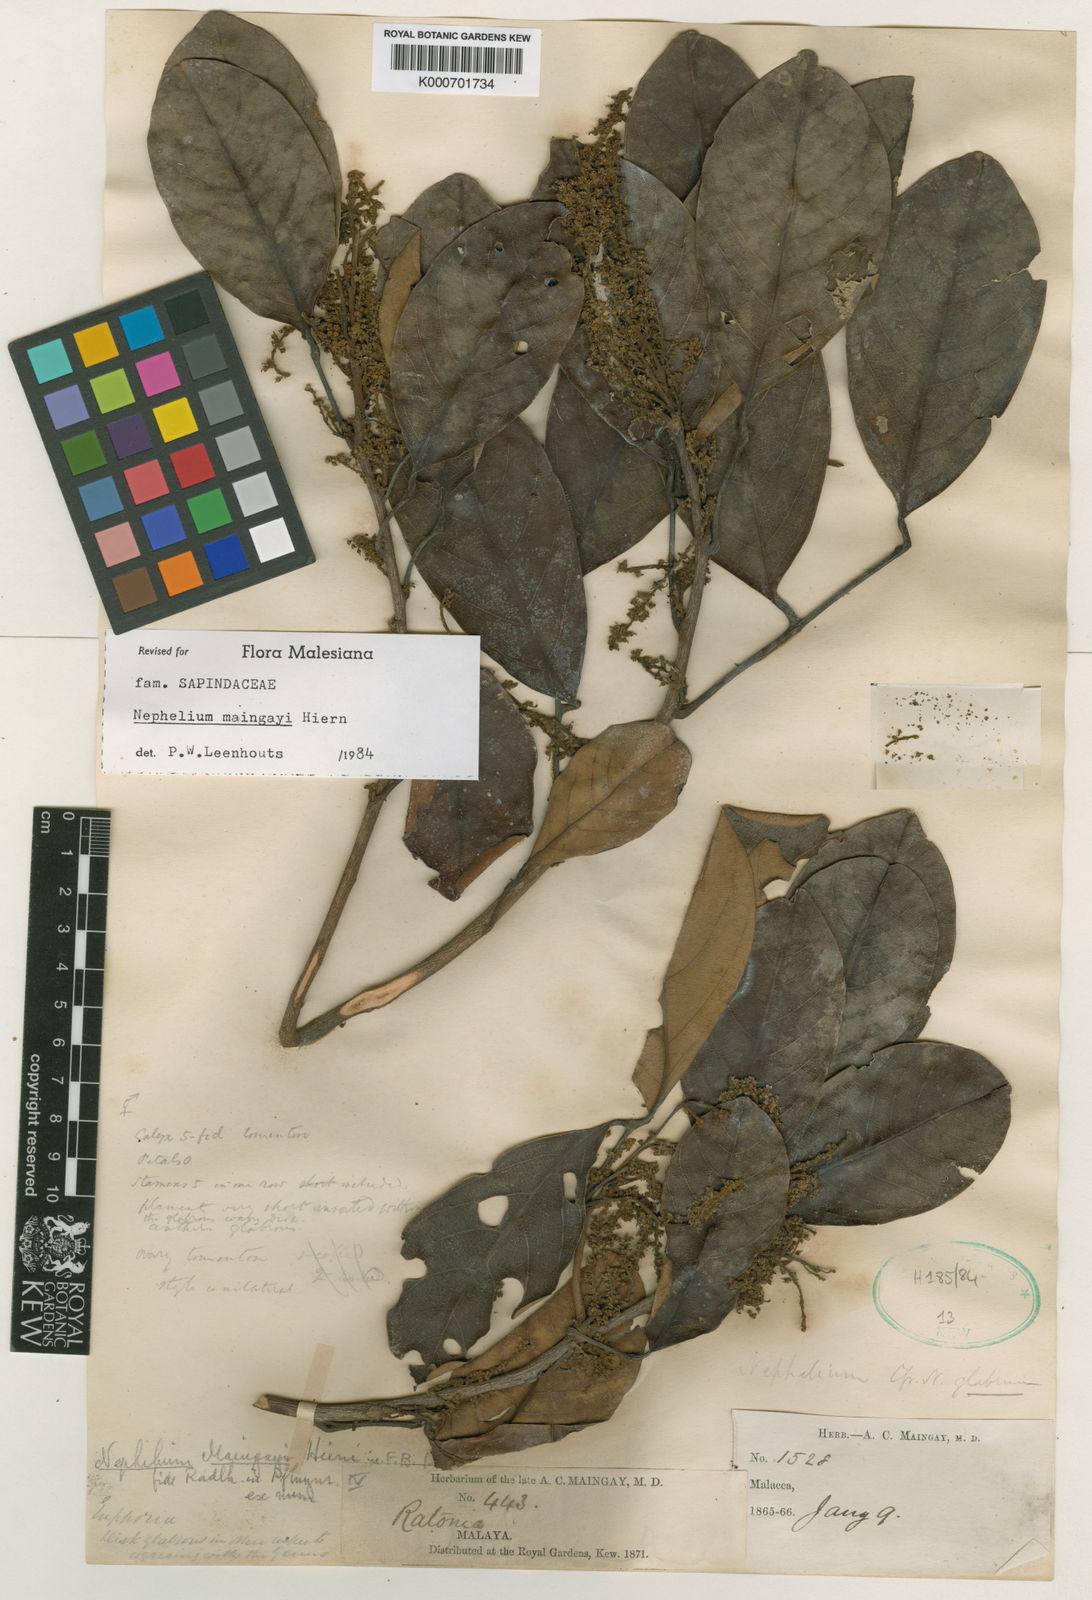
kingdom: Plantae
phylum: Tracheophyta
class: Magnoliopsida
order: Sapindales
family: Sapindaceae
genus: Nephelium
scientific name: Nephelium maingayi
